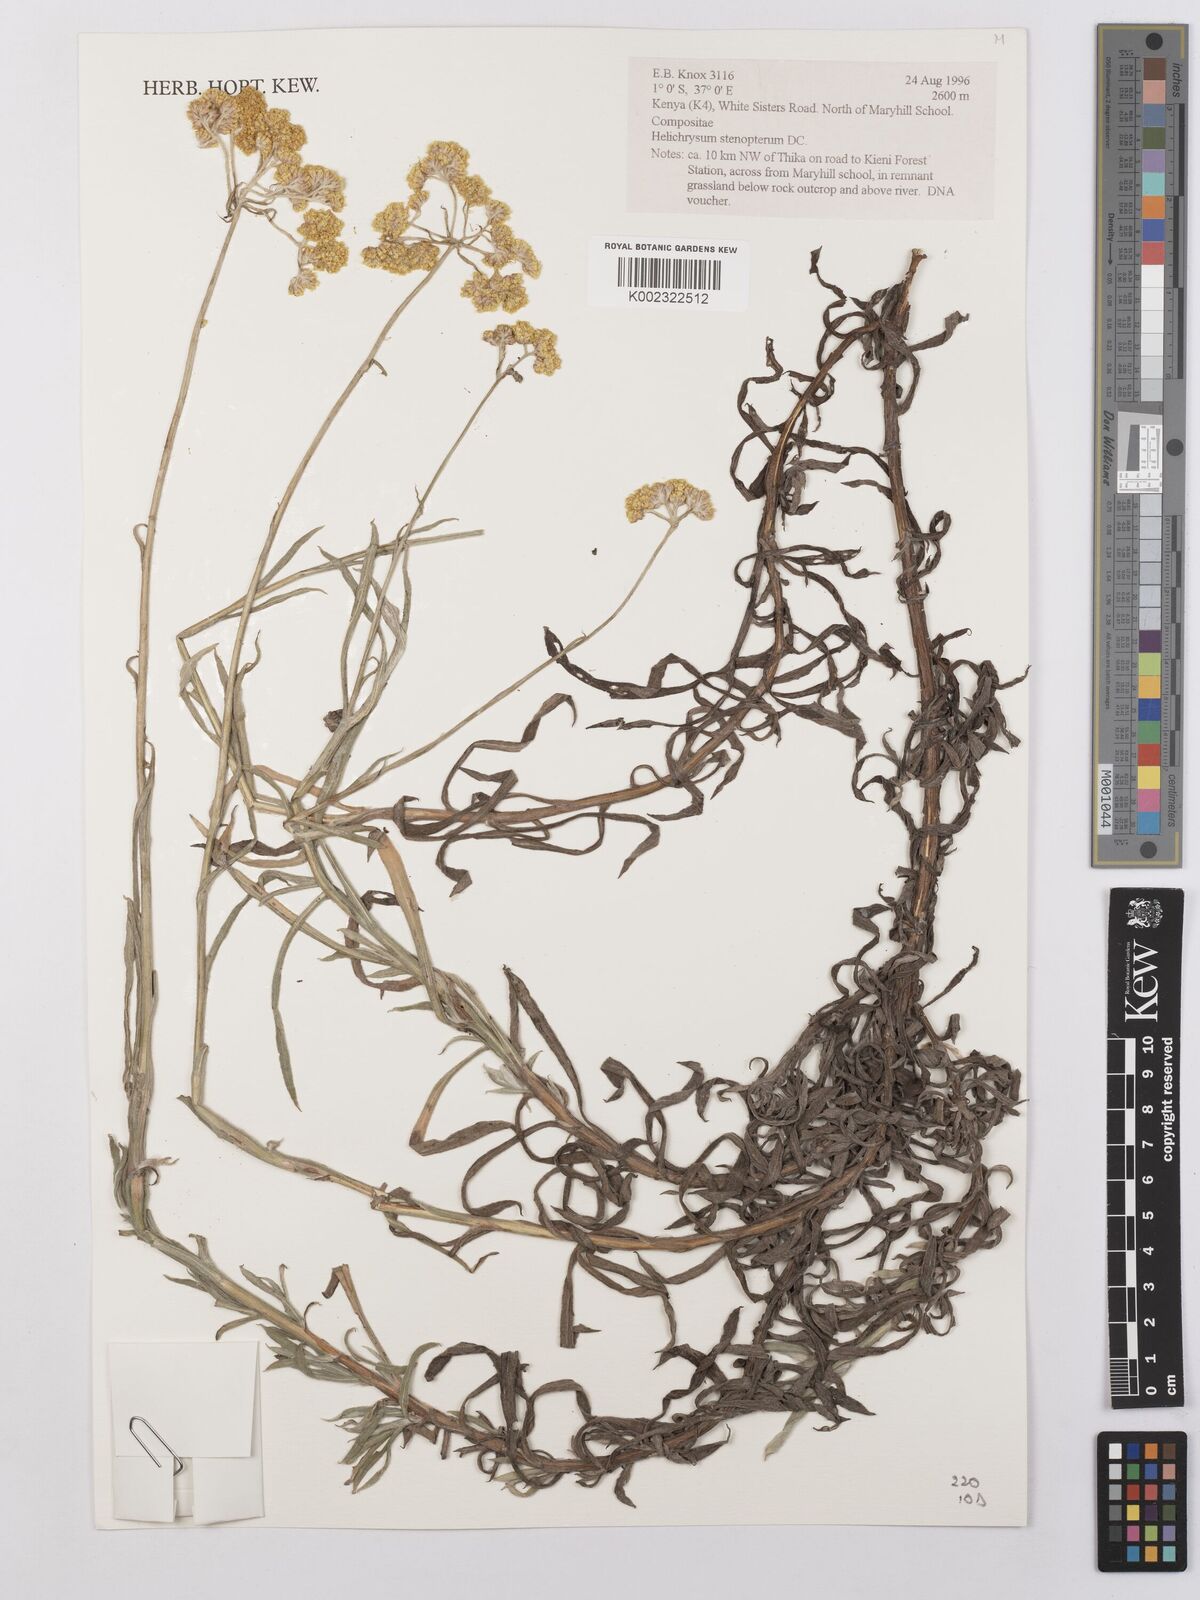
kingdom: Plantae
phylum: Tracheophyta
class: Magnoliopsida
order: Asterales
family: Asteraceae
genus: Helichrysum
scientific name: Helichrysum stenopterum
